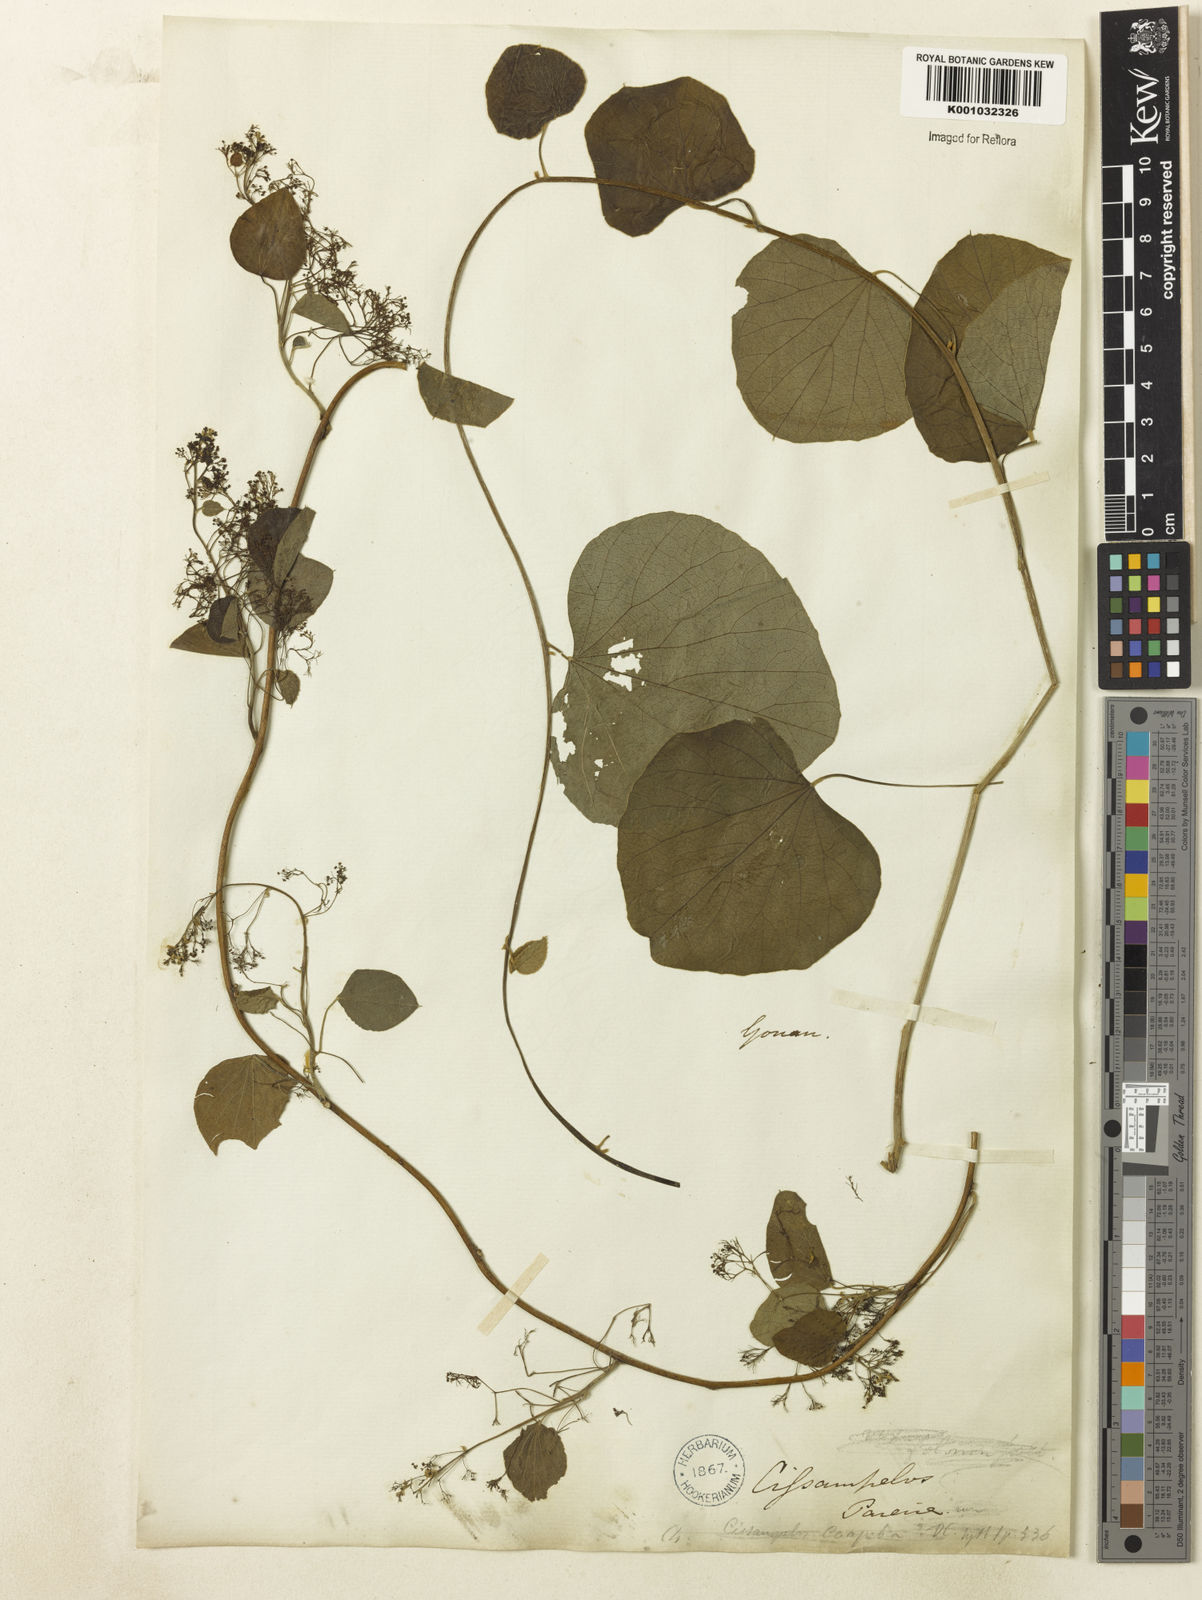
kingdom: Plantae
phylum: Tracheophyta
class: Magnoliopsida
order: Ranunculales
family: Menispermaceae
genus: Cissampelos
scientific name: Cissampelos
